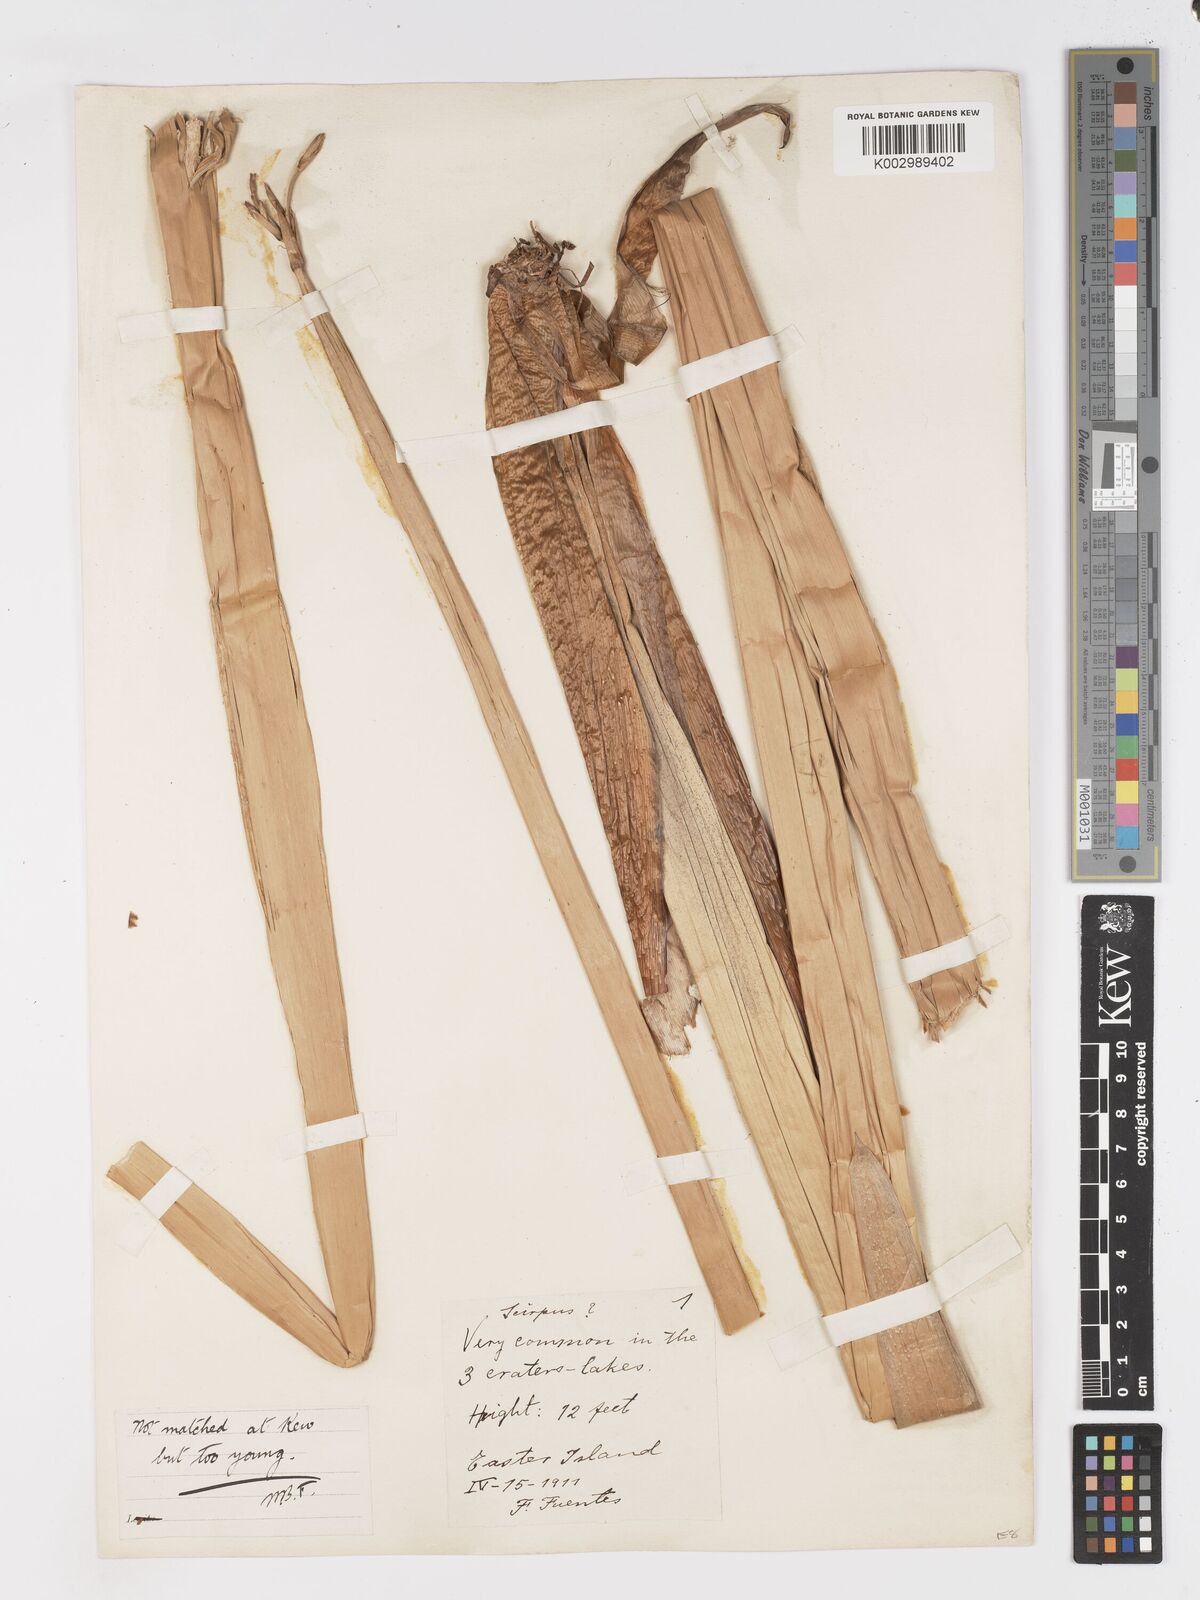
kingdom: Plantae
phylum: Tracheophyta
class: Liliopsida
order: Poales
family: Cyperaceae
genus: Schoenoplectus
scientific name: Schoenoplectus californicus
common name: California bulrush
